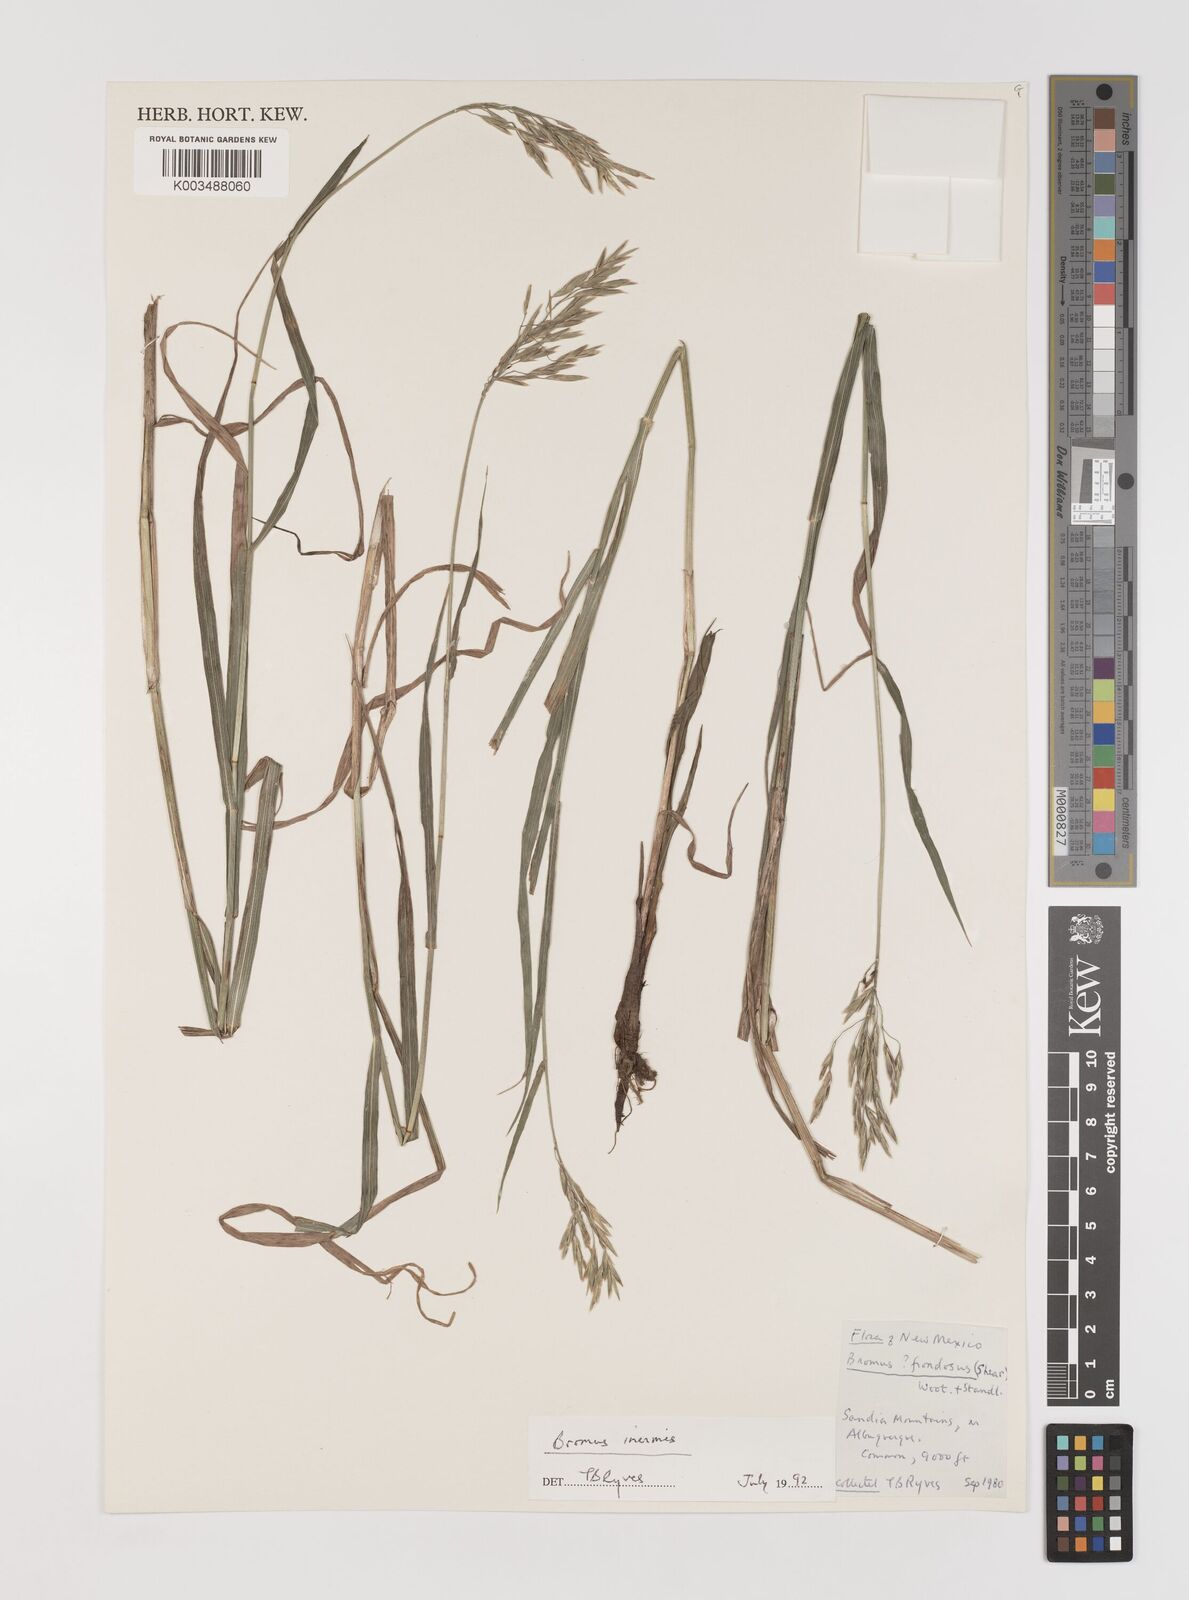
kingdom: Plantae
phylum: Tracheophyta
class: Liliopsida
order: Poales
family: Poaceae
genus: Bromus
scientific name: Bromus inermis
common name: Smooth brome
